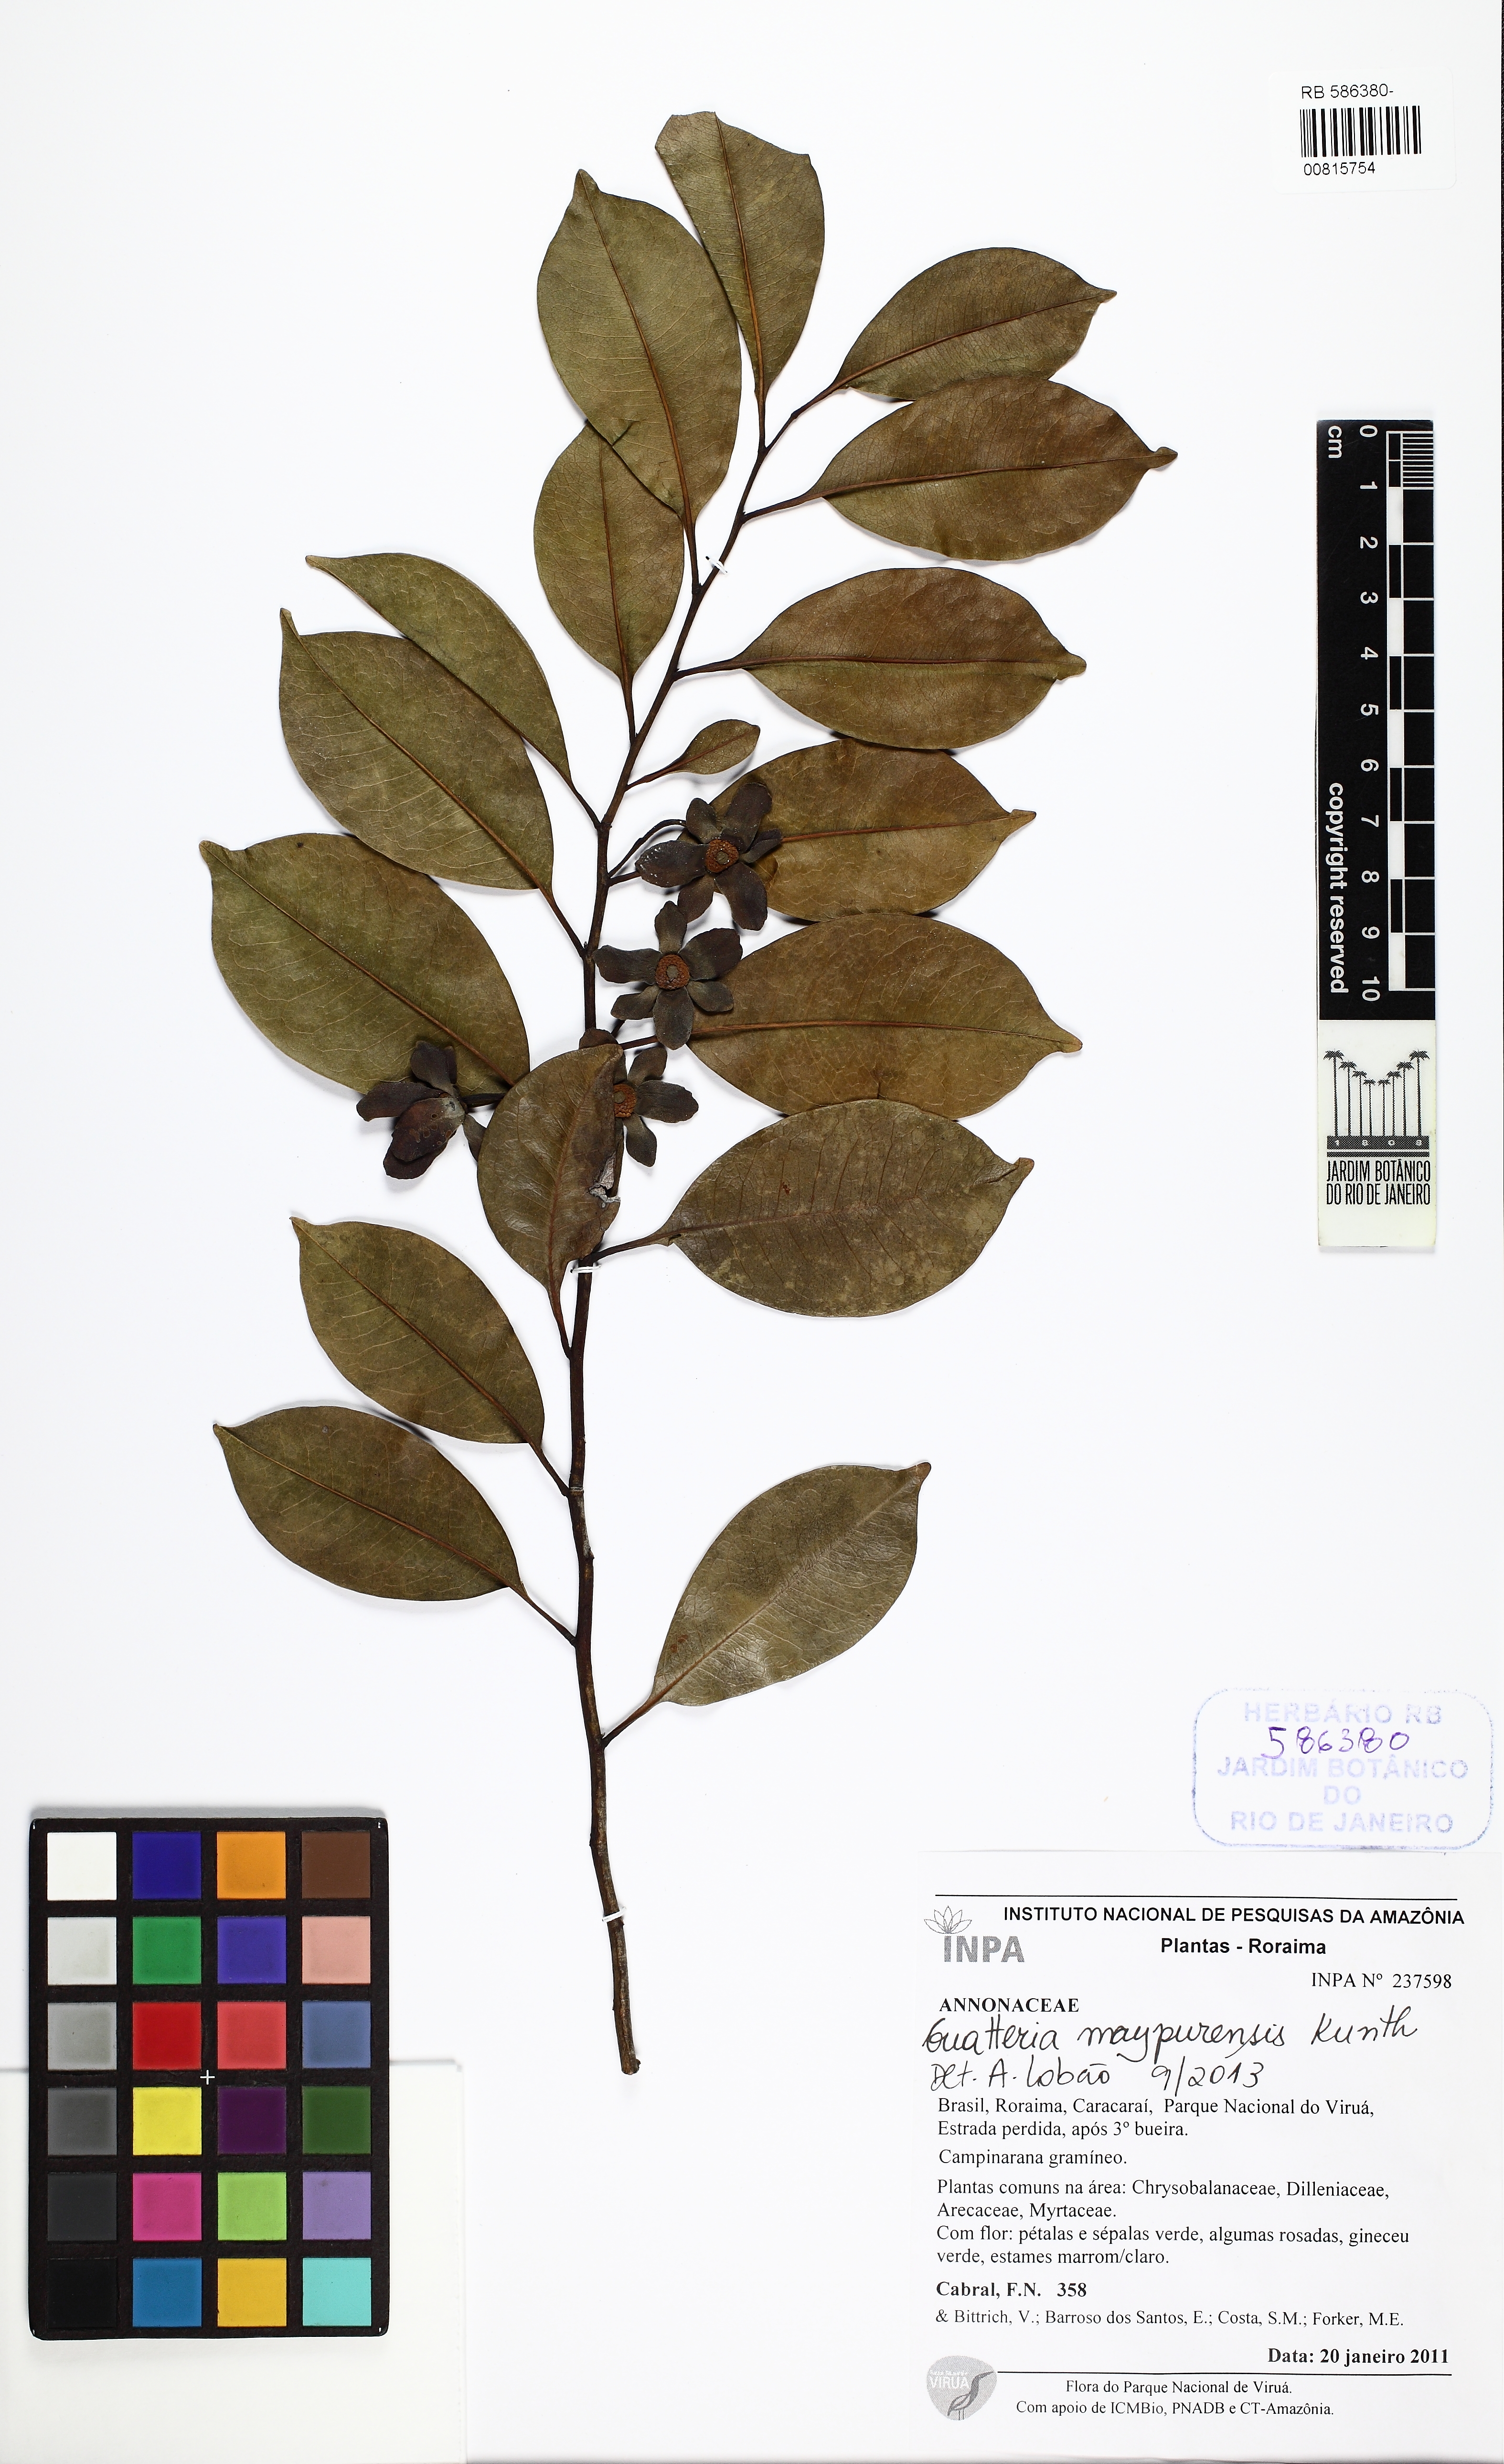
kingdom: Plantae
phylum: Tracheophyta
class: Magnoliopsida
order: Magnoliales
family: Annonaceae
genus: Guatteria
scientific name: Guatteria maypurensis
